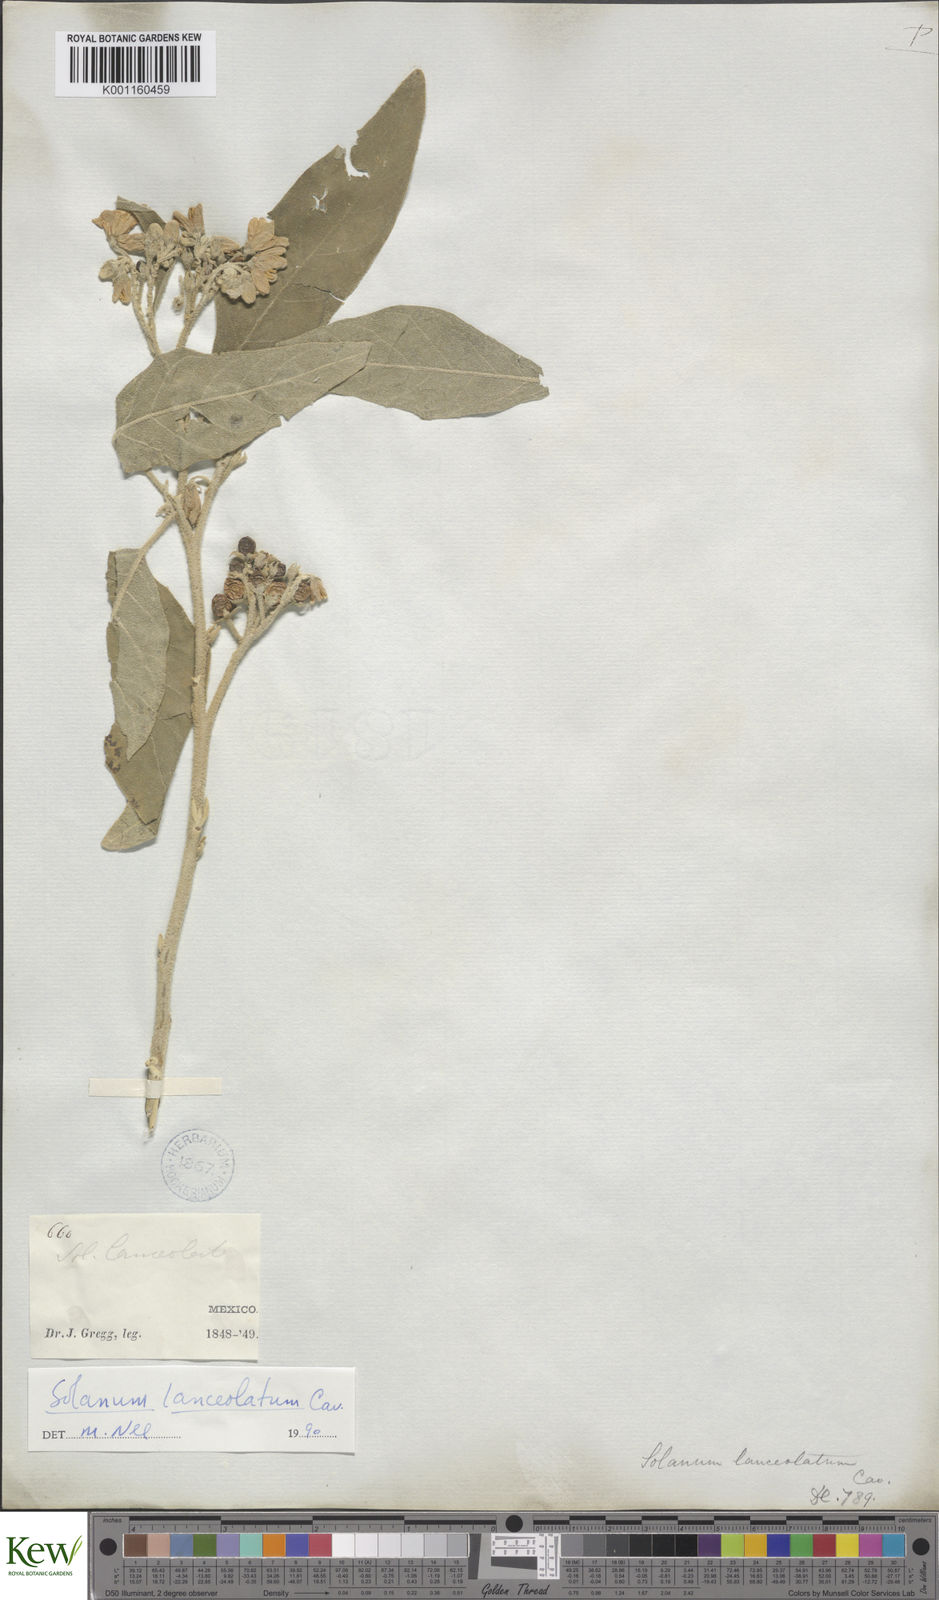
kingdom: Plantae
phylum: Tracheophyta
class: Magnoliopsida
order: Solanales
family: Solanaceae
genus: Solanum
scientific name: Solanum lanceolatum
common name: Orangeberry nightshade
